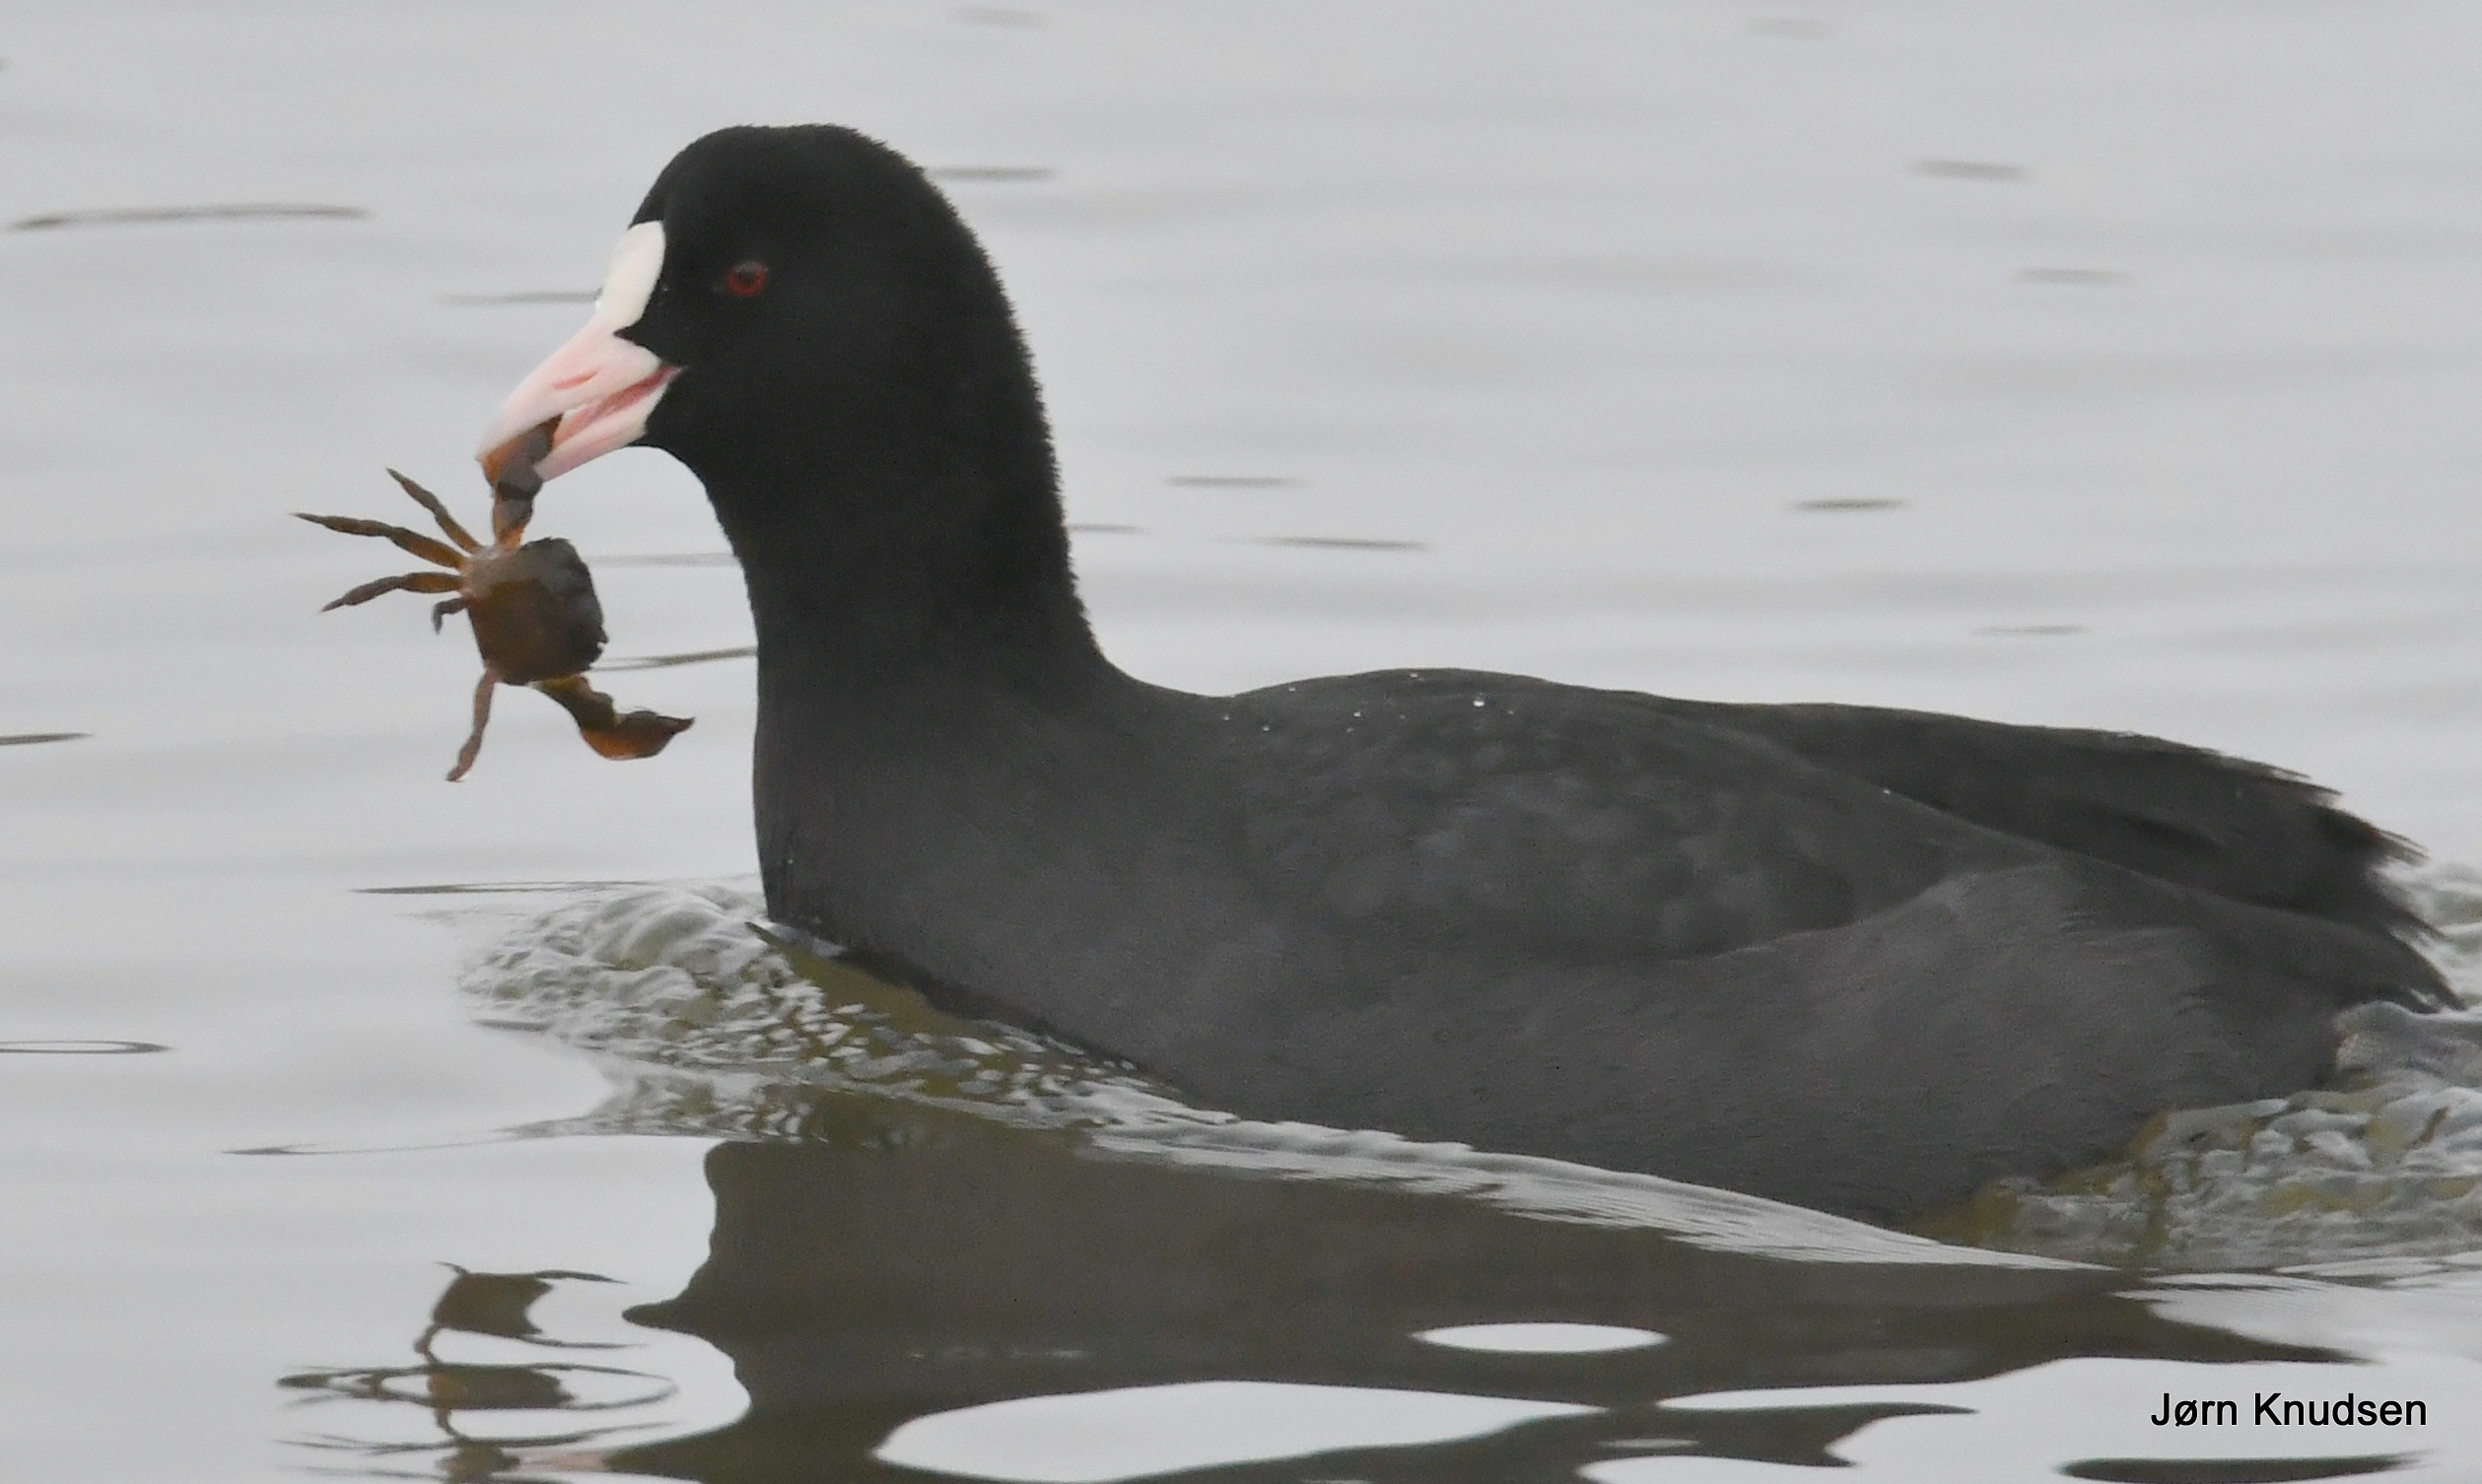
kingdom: Animalia
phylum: Chordata
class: Aves
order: Gruiformes
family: Rallidae
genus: Fulica
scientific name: Fulica atra
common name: Blishøne
